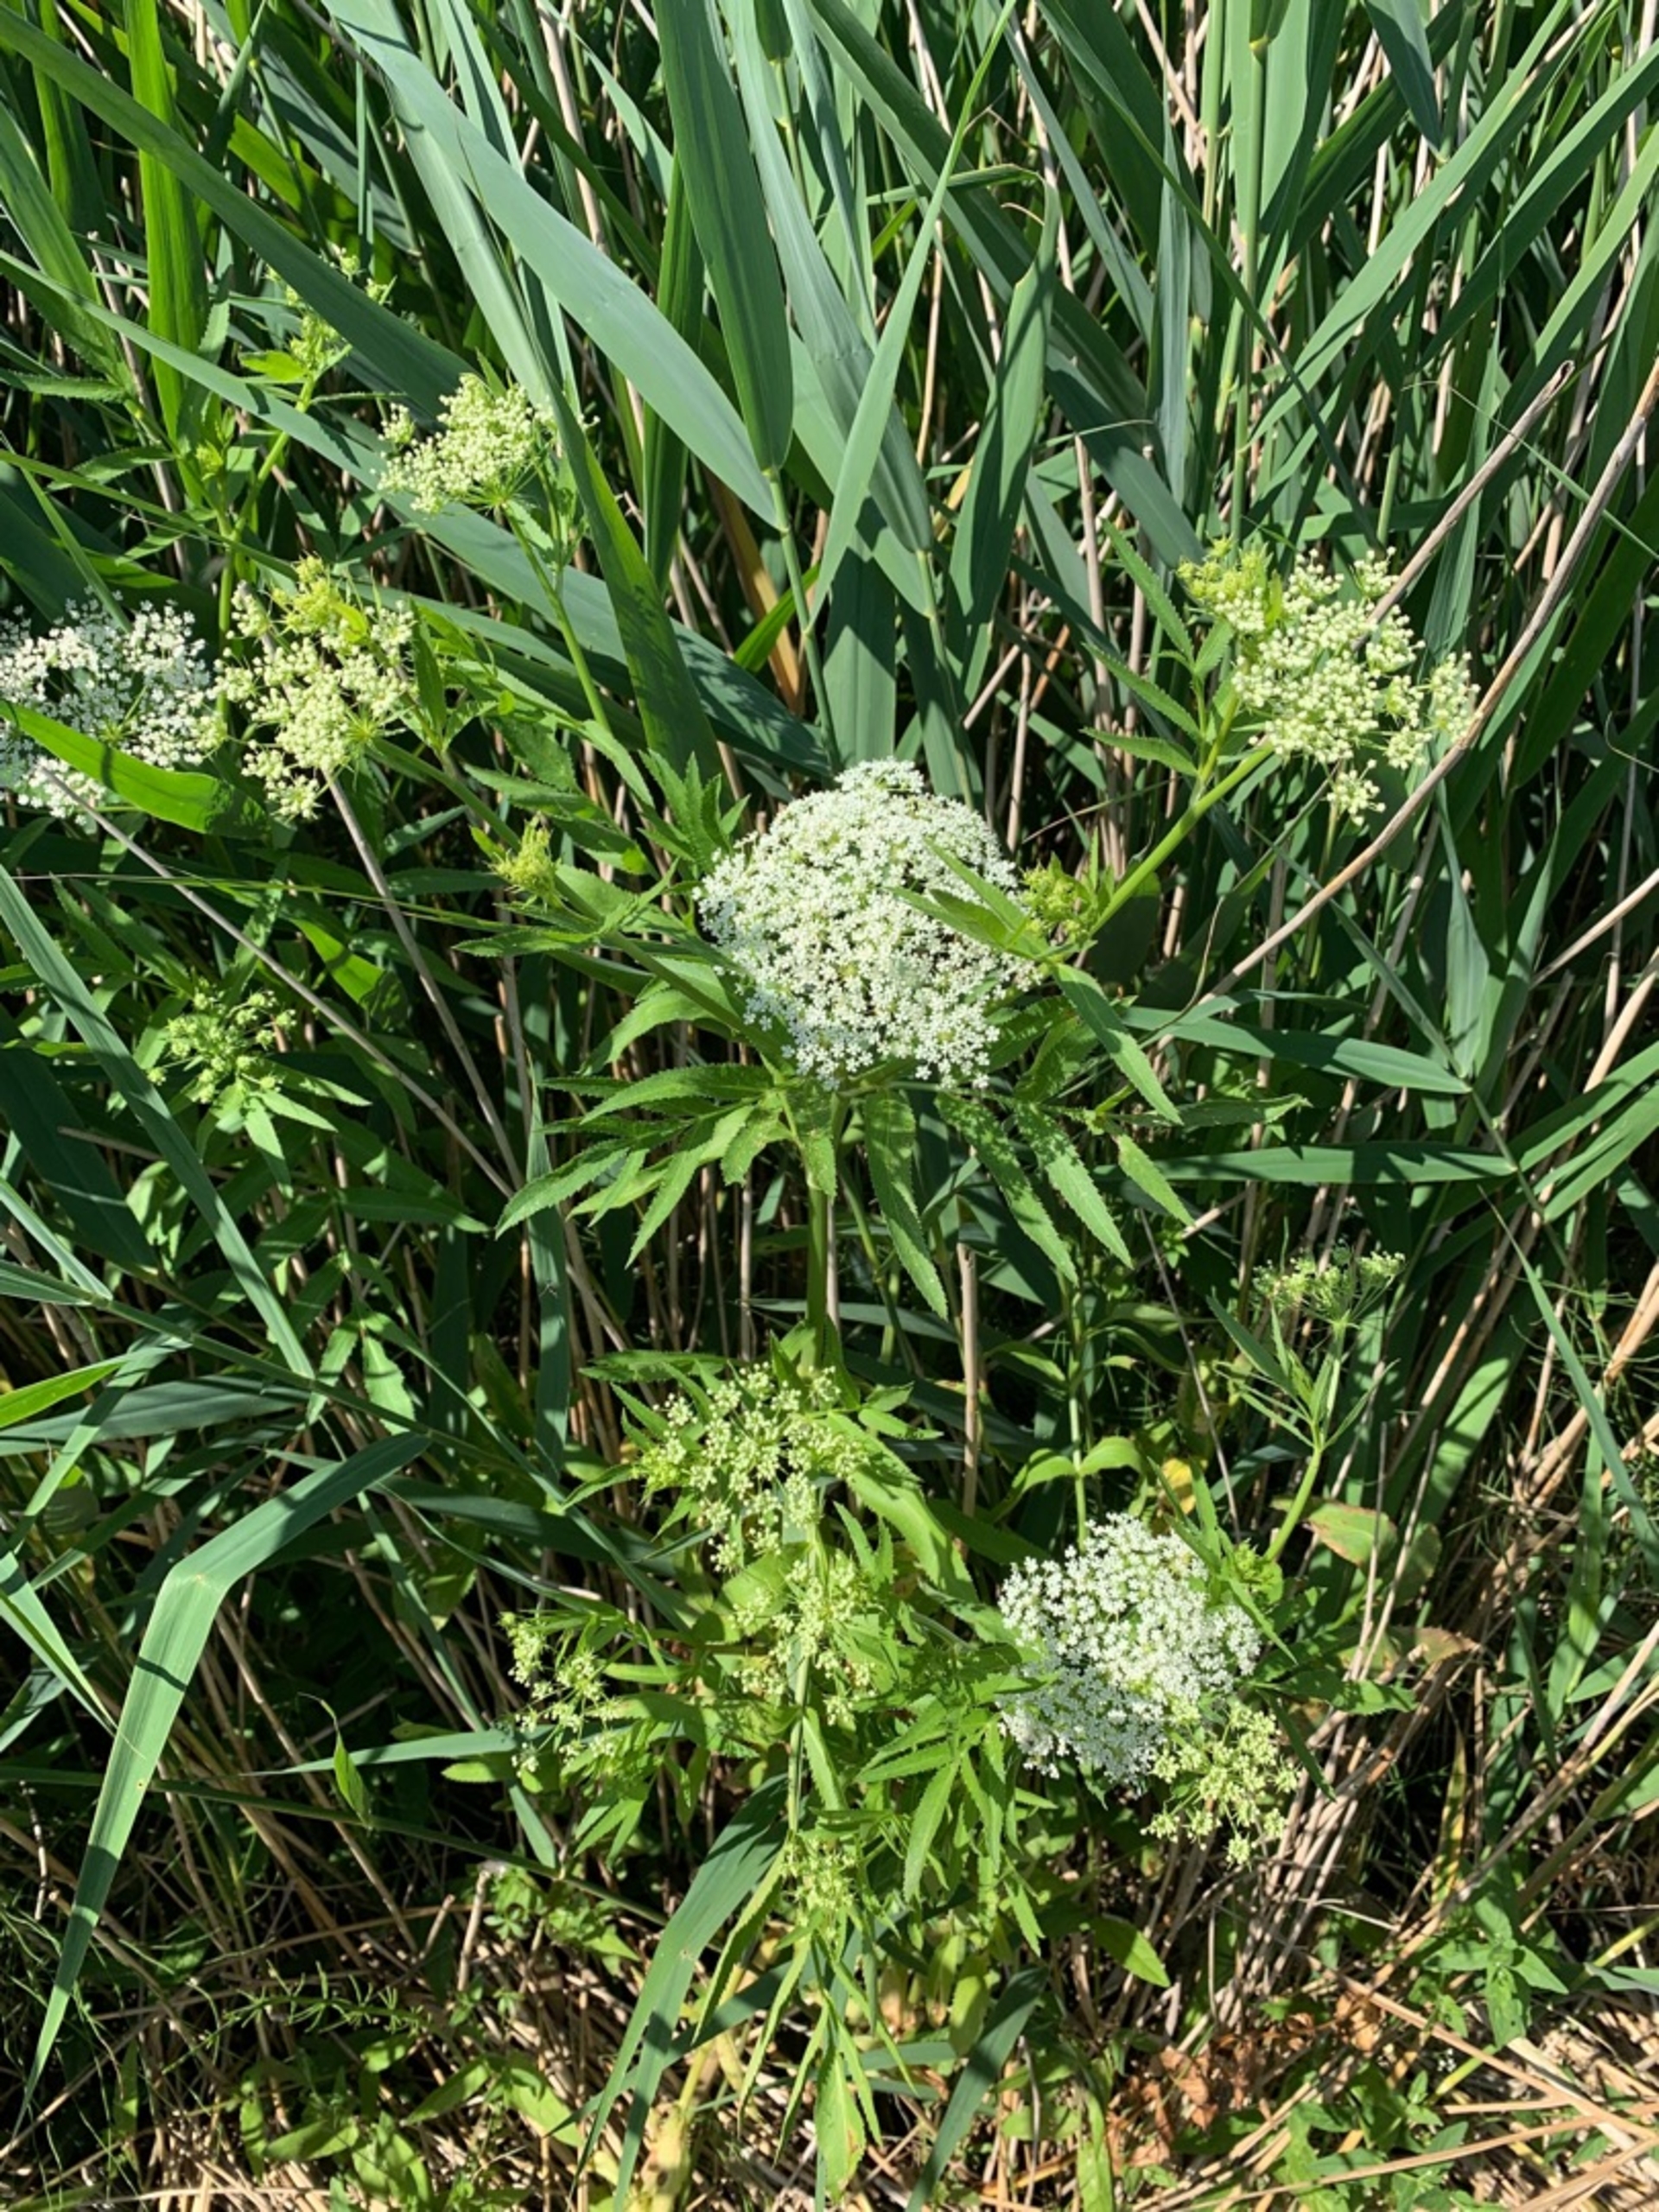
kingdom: Plantae
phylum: Tracheophyta
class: Magnoliopsida
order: Apiales
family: Apiaceae
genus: Sium
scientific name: Sium latifolium
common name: Bredbladet mærke
